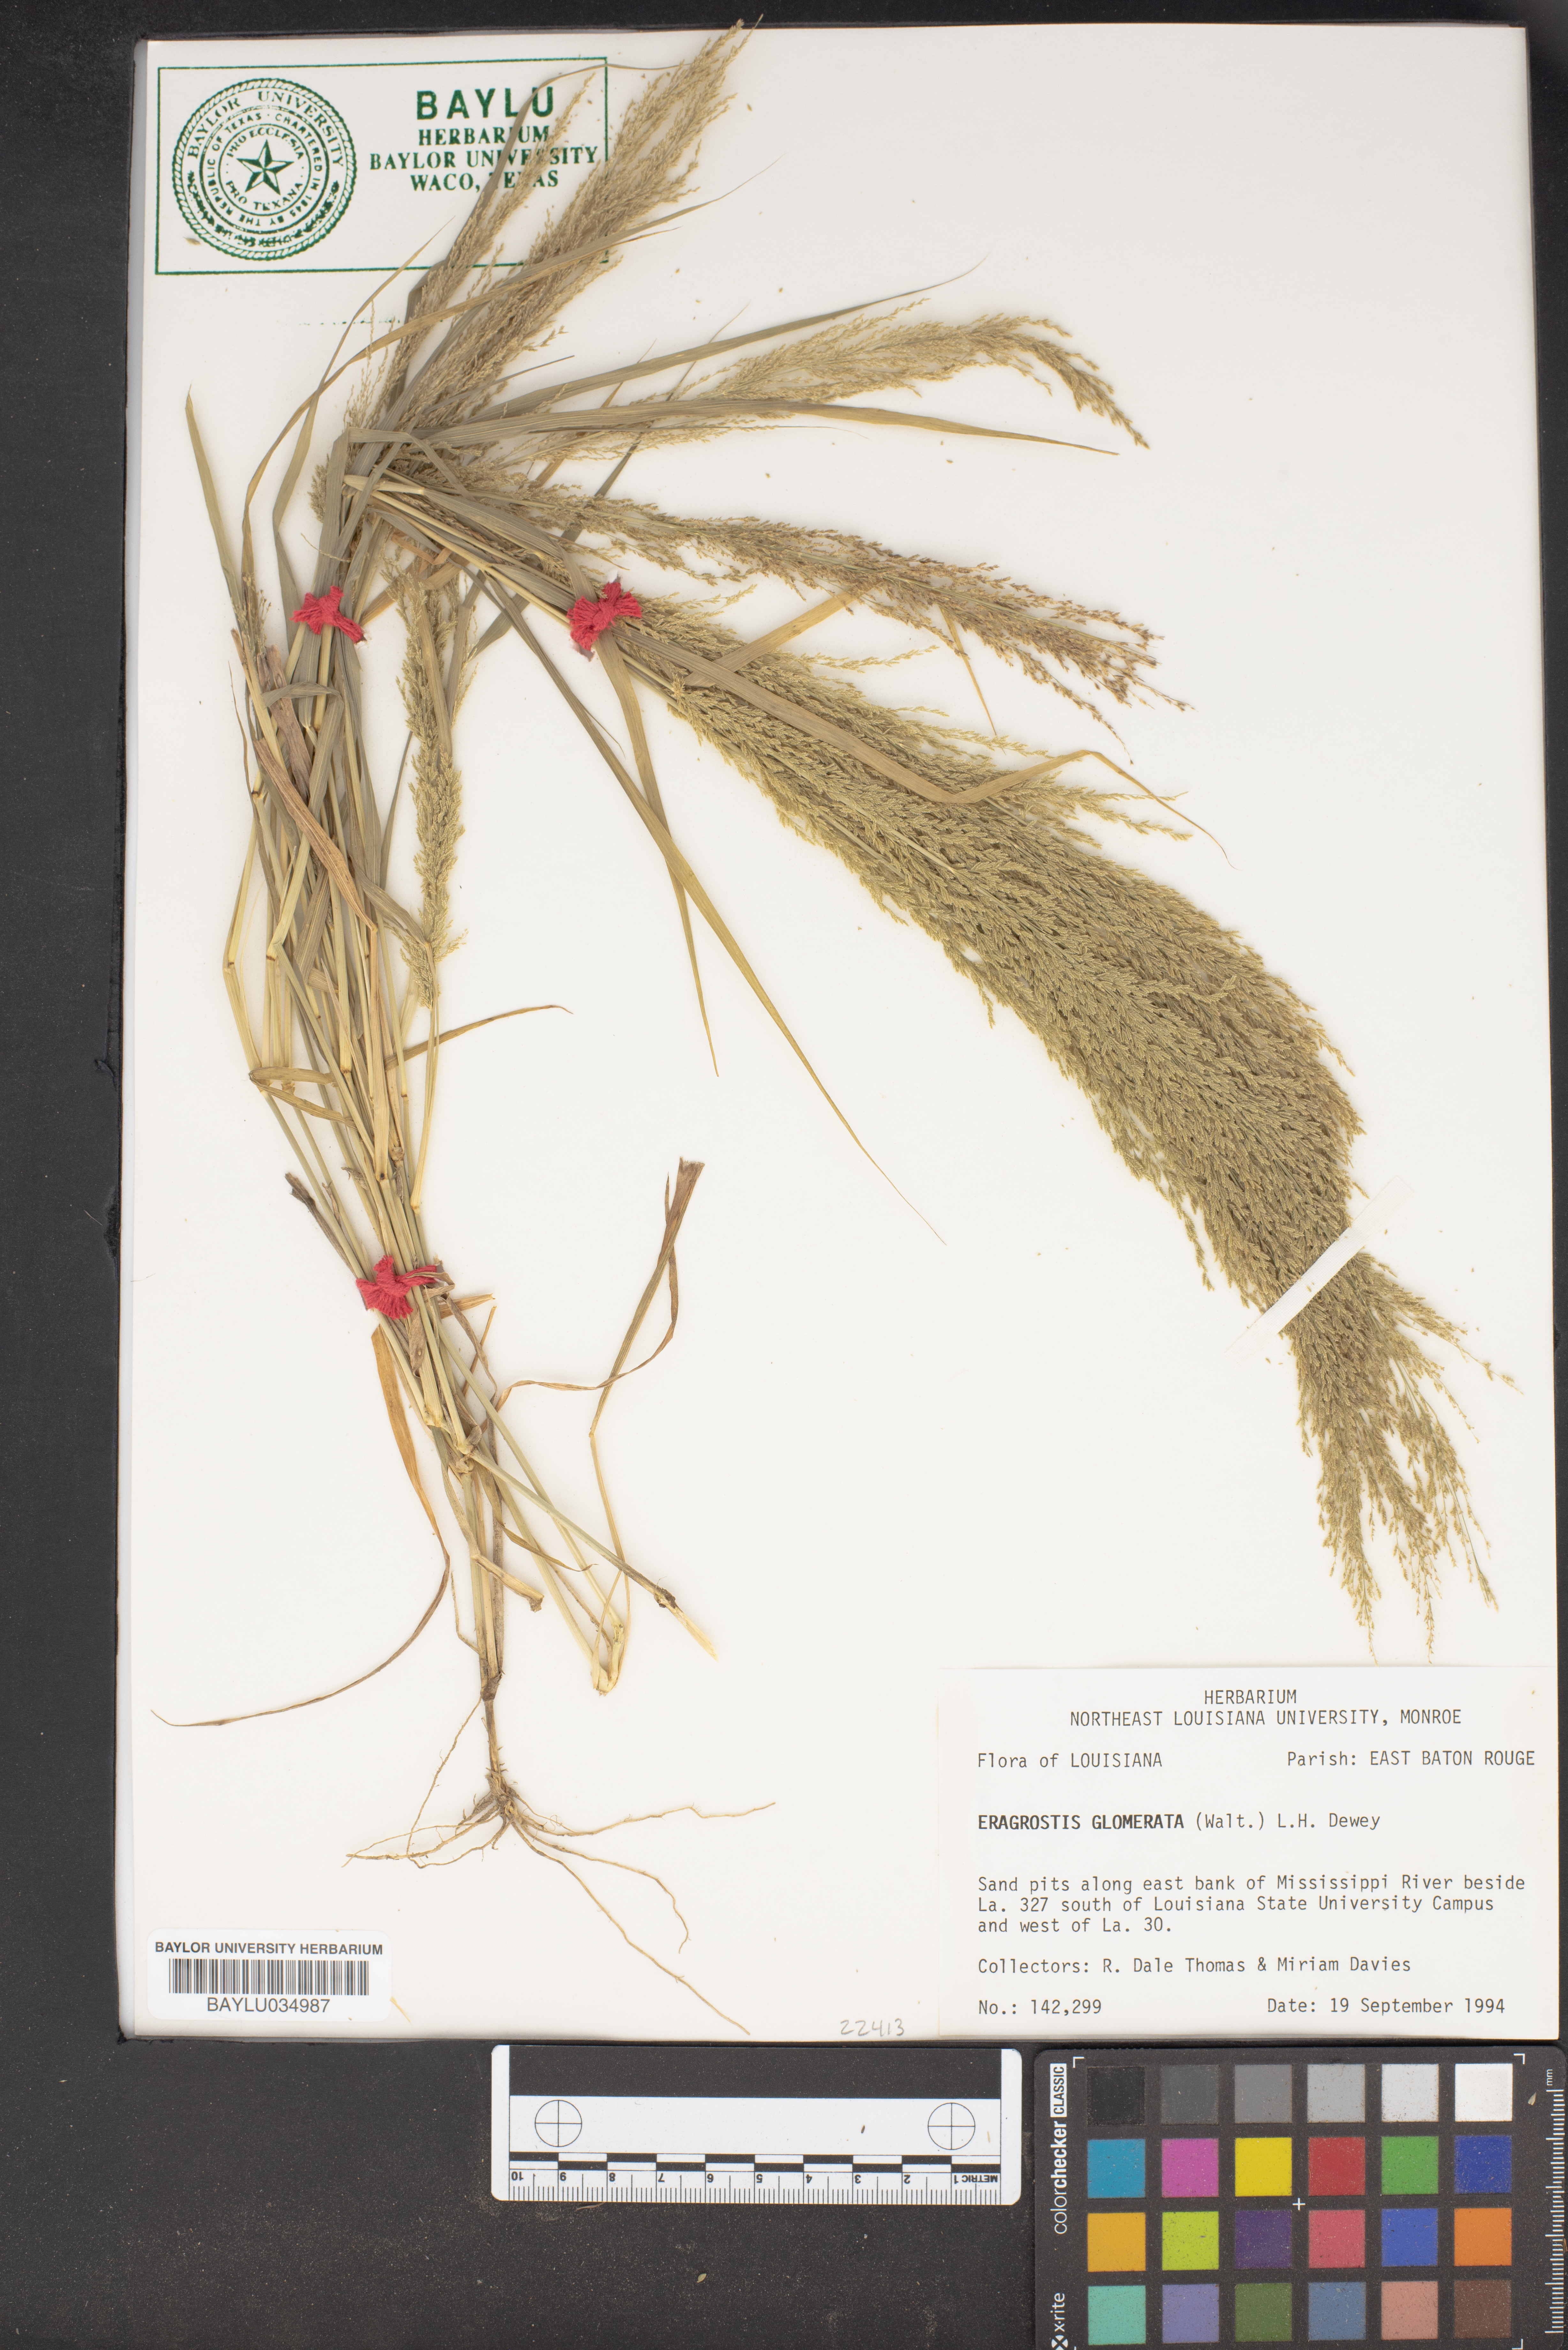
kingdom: Plantae
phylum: Tracheophyta
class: Liliopsida
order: Poales
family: Poaceae
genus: Eragrostis
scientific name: Eragrostis japonica
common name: Pond lovegrass
